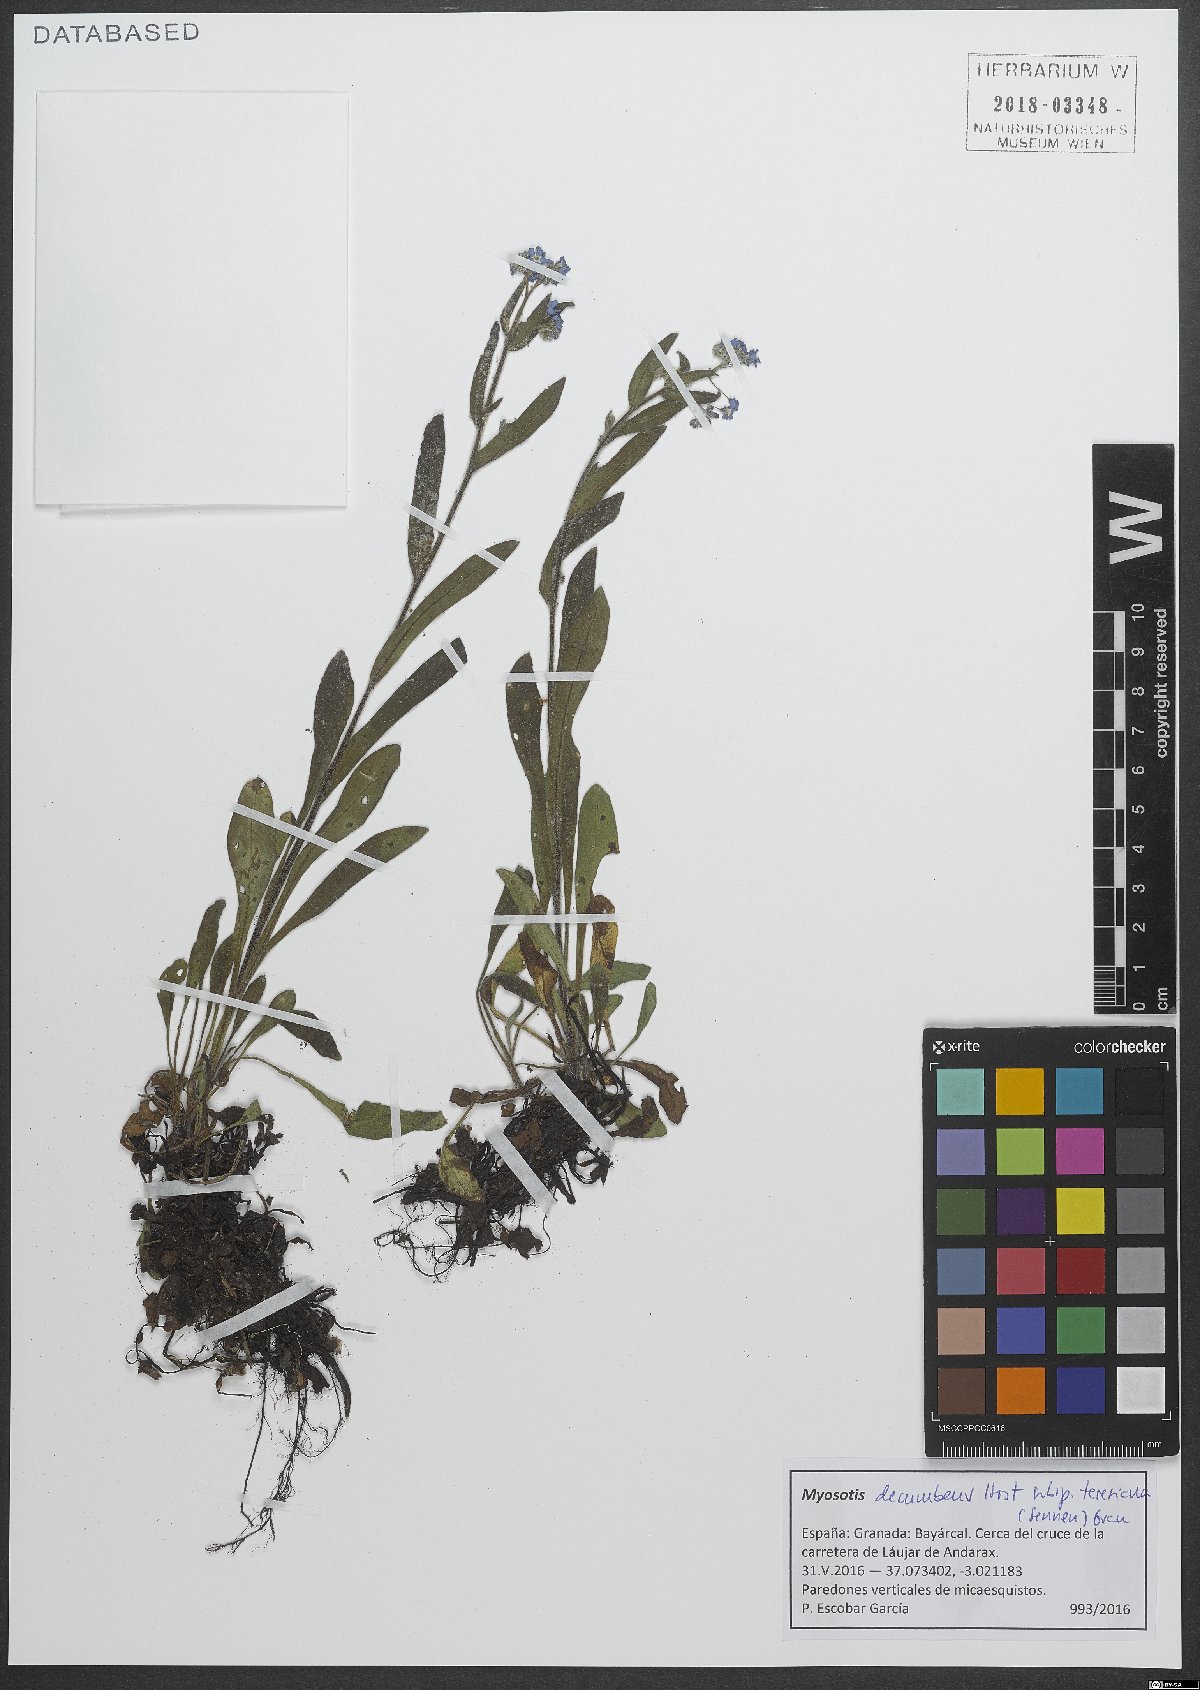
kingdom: Plantae
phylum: Tracheophyta
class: Magnoliopsida
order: Boraginales
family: Boraginaceae
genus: Myosotis
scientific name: Myosotis decumbens
